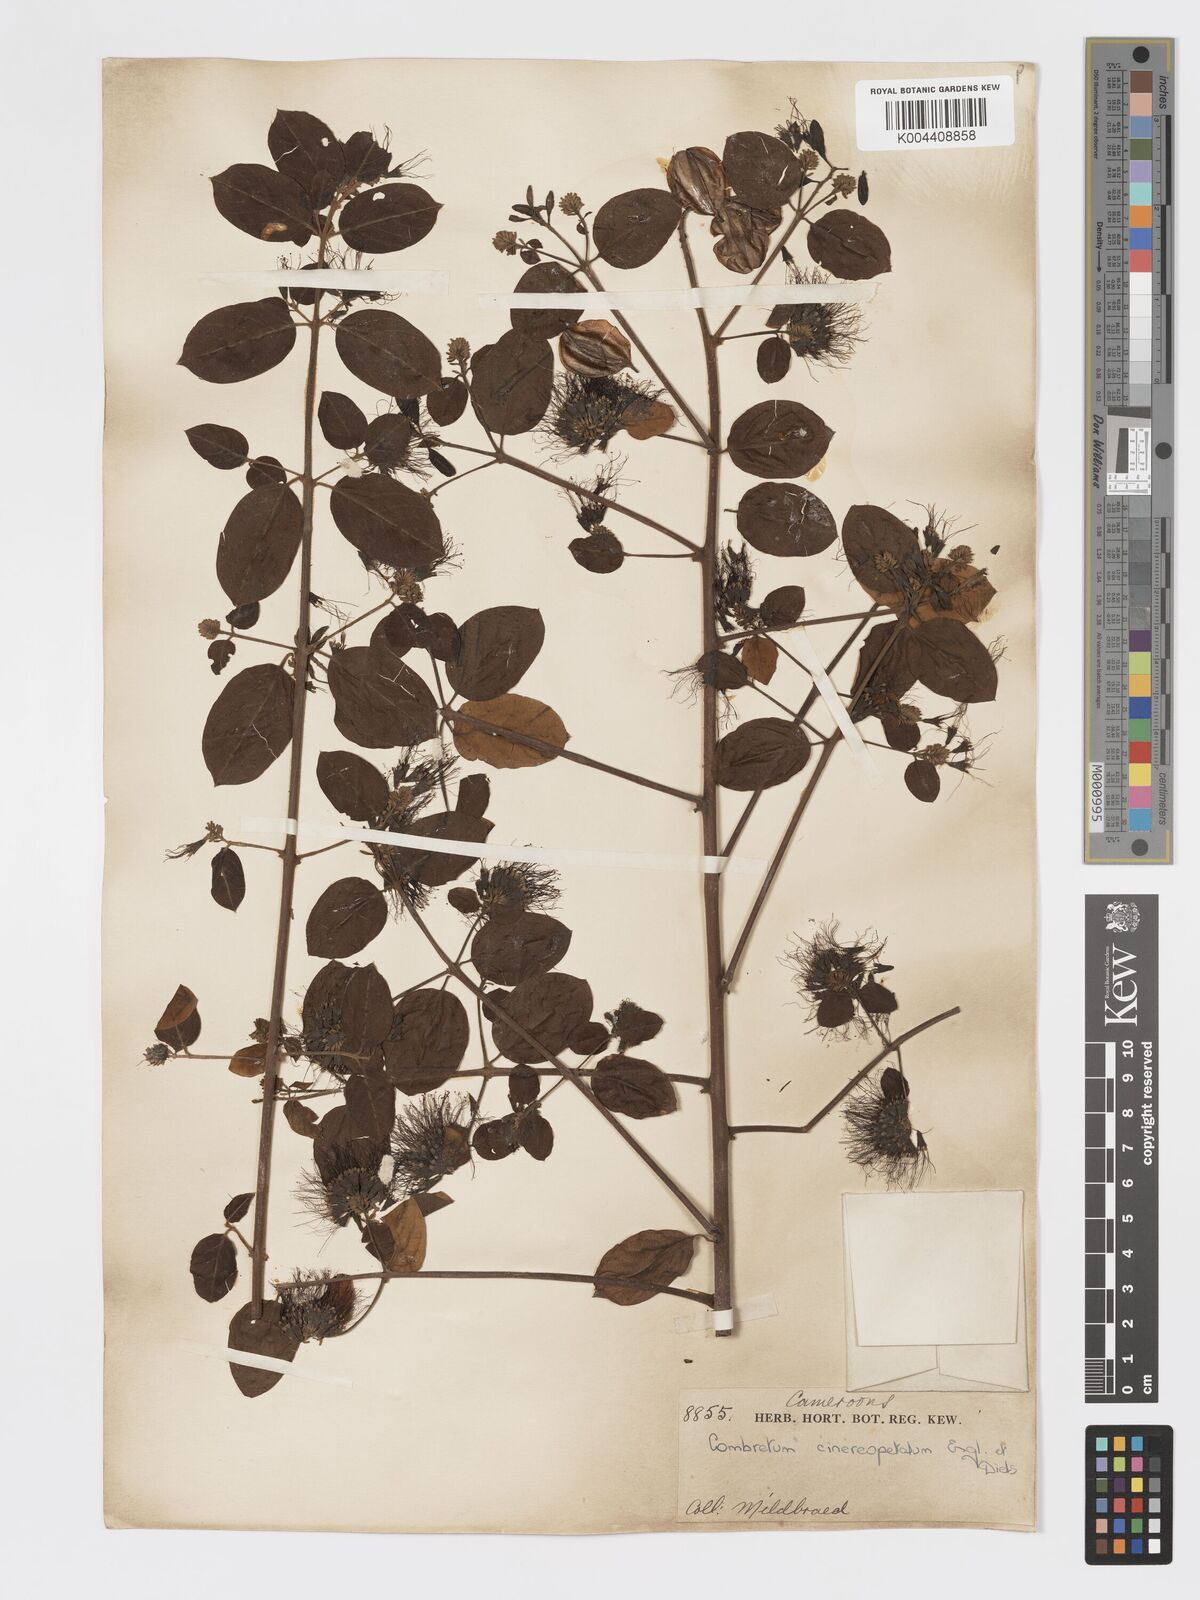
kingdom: Plantae
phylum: Tracheophyta
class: Magnoliopsida
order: Myrtales
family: Combretaceae
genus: Combretum
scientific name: Combretum cinereopetalum
